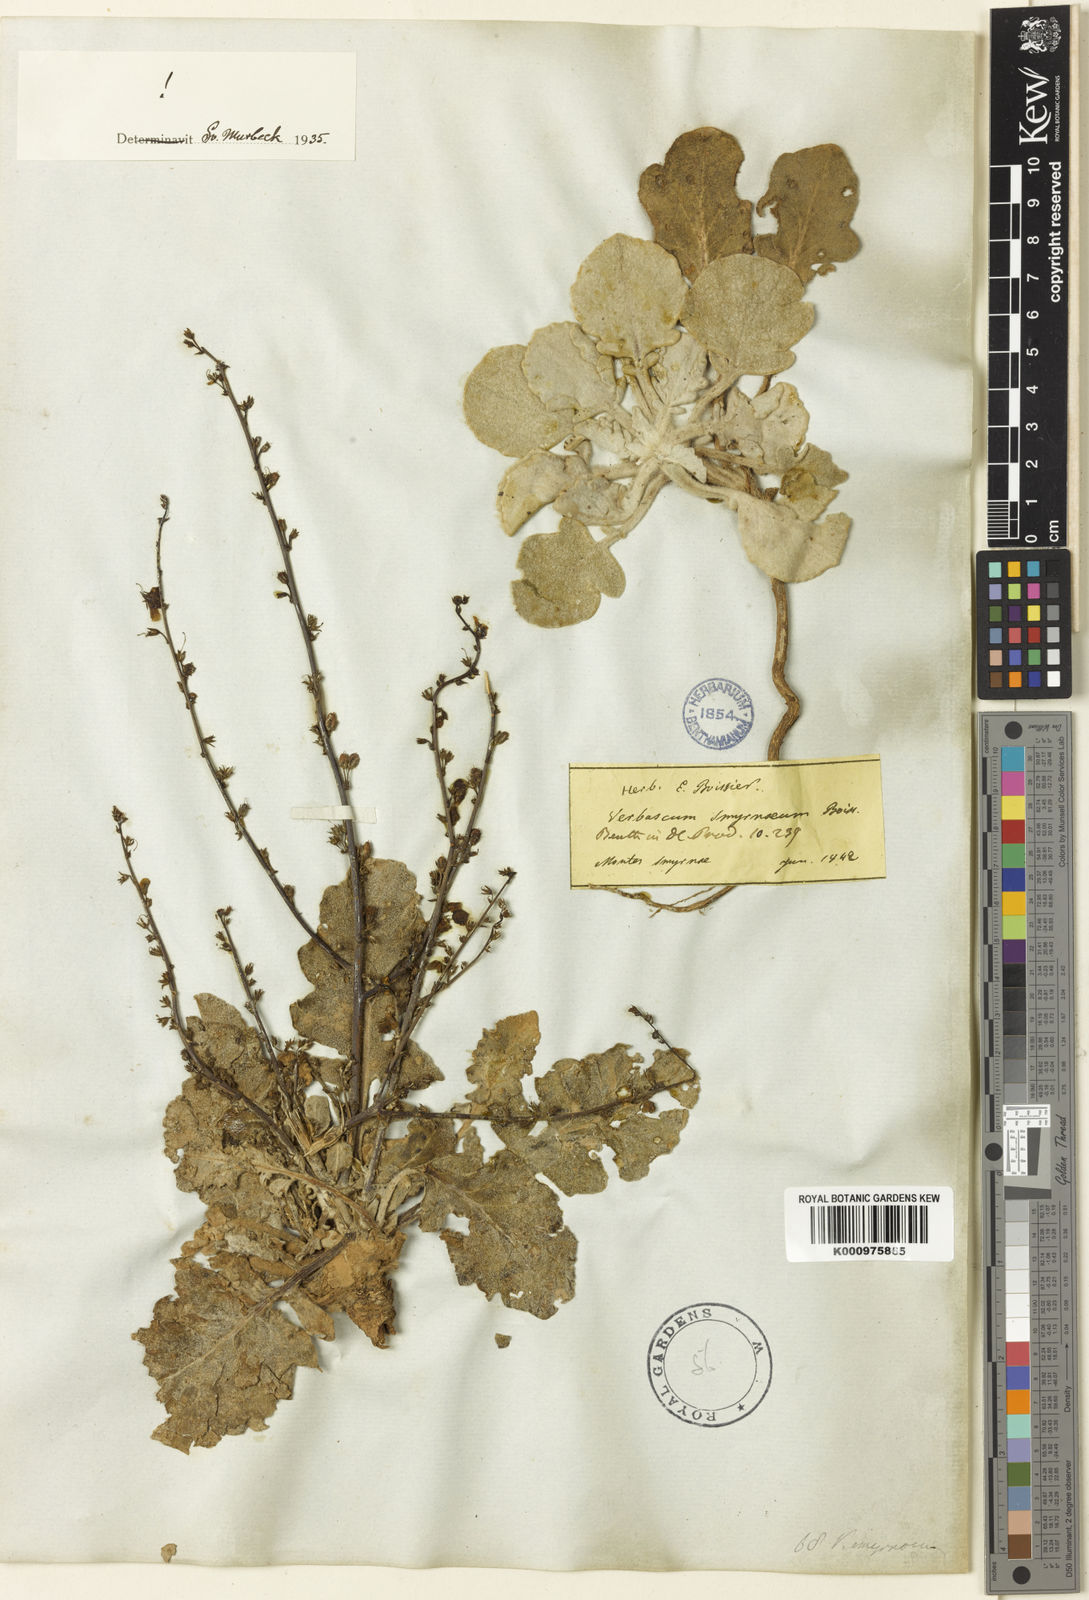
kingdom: Plantae
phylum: Tracheophyta
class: Magnoliopsida
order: Lamiales
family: Scrophulariaceae
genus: Verbascum
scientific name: Verbascum smyrnaeum
